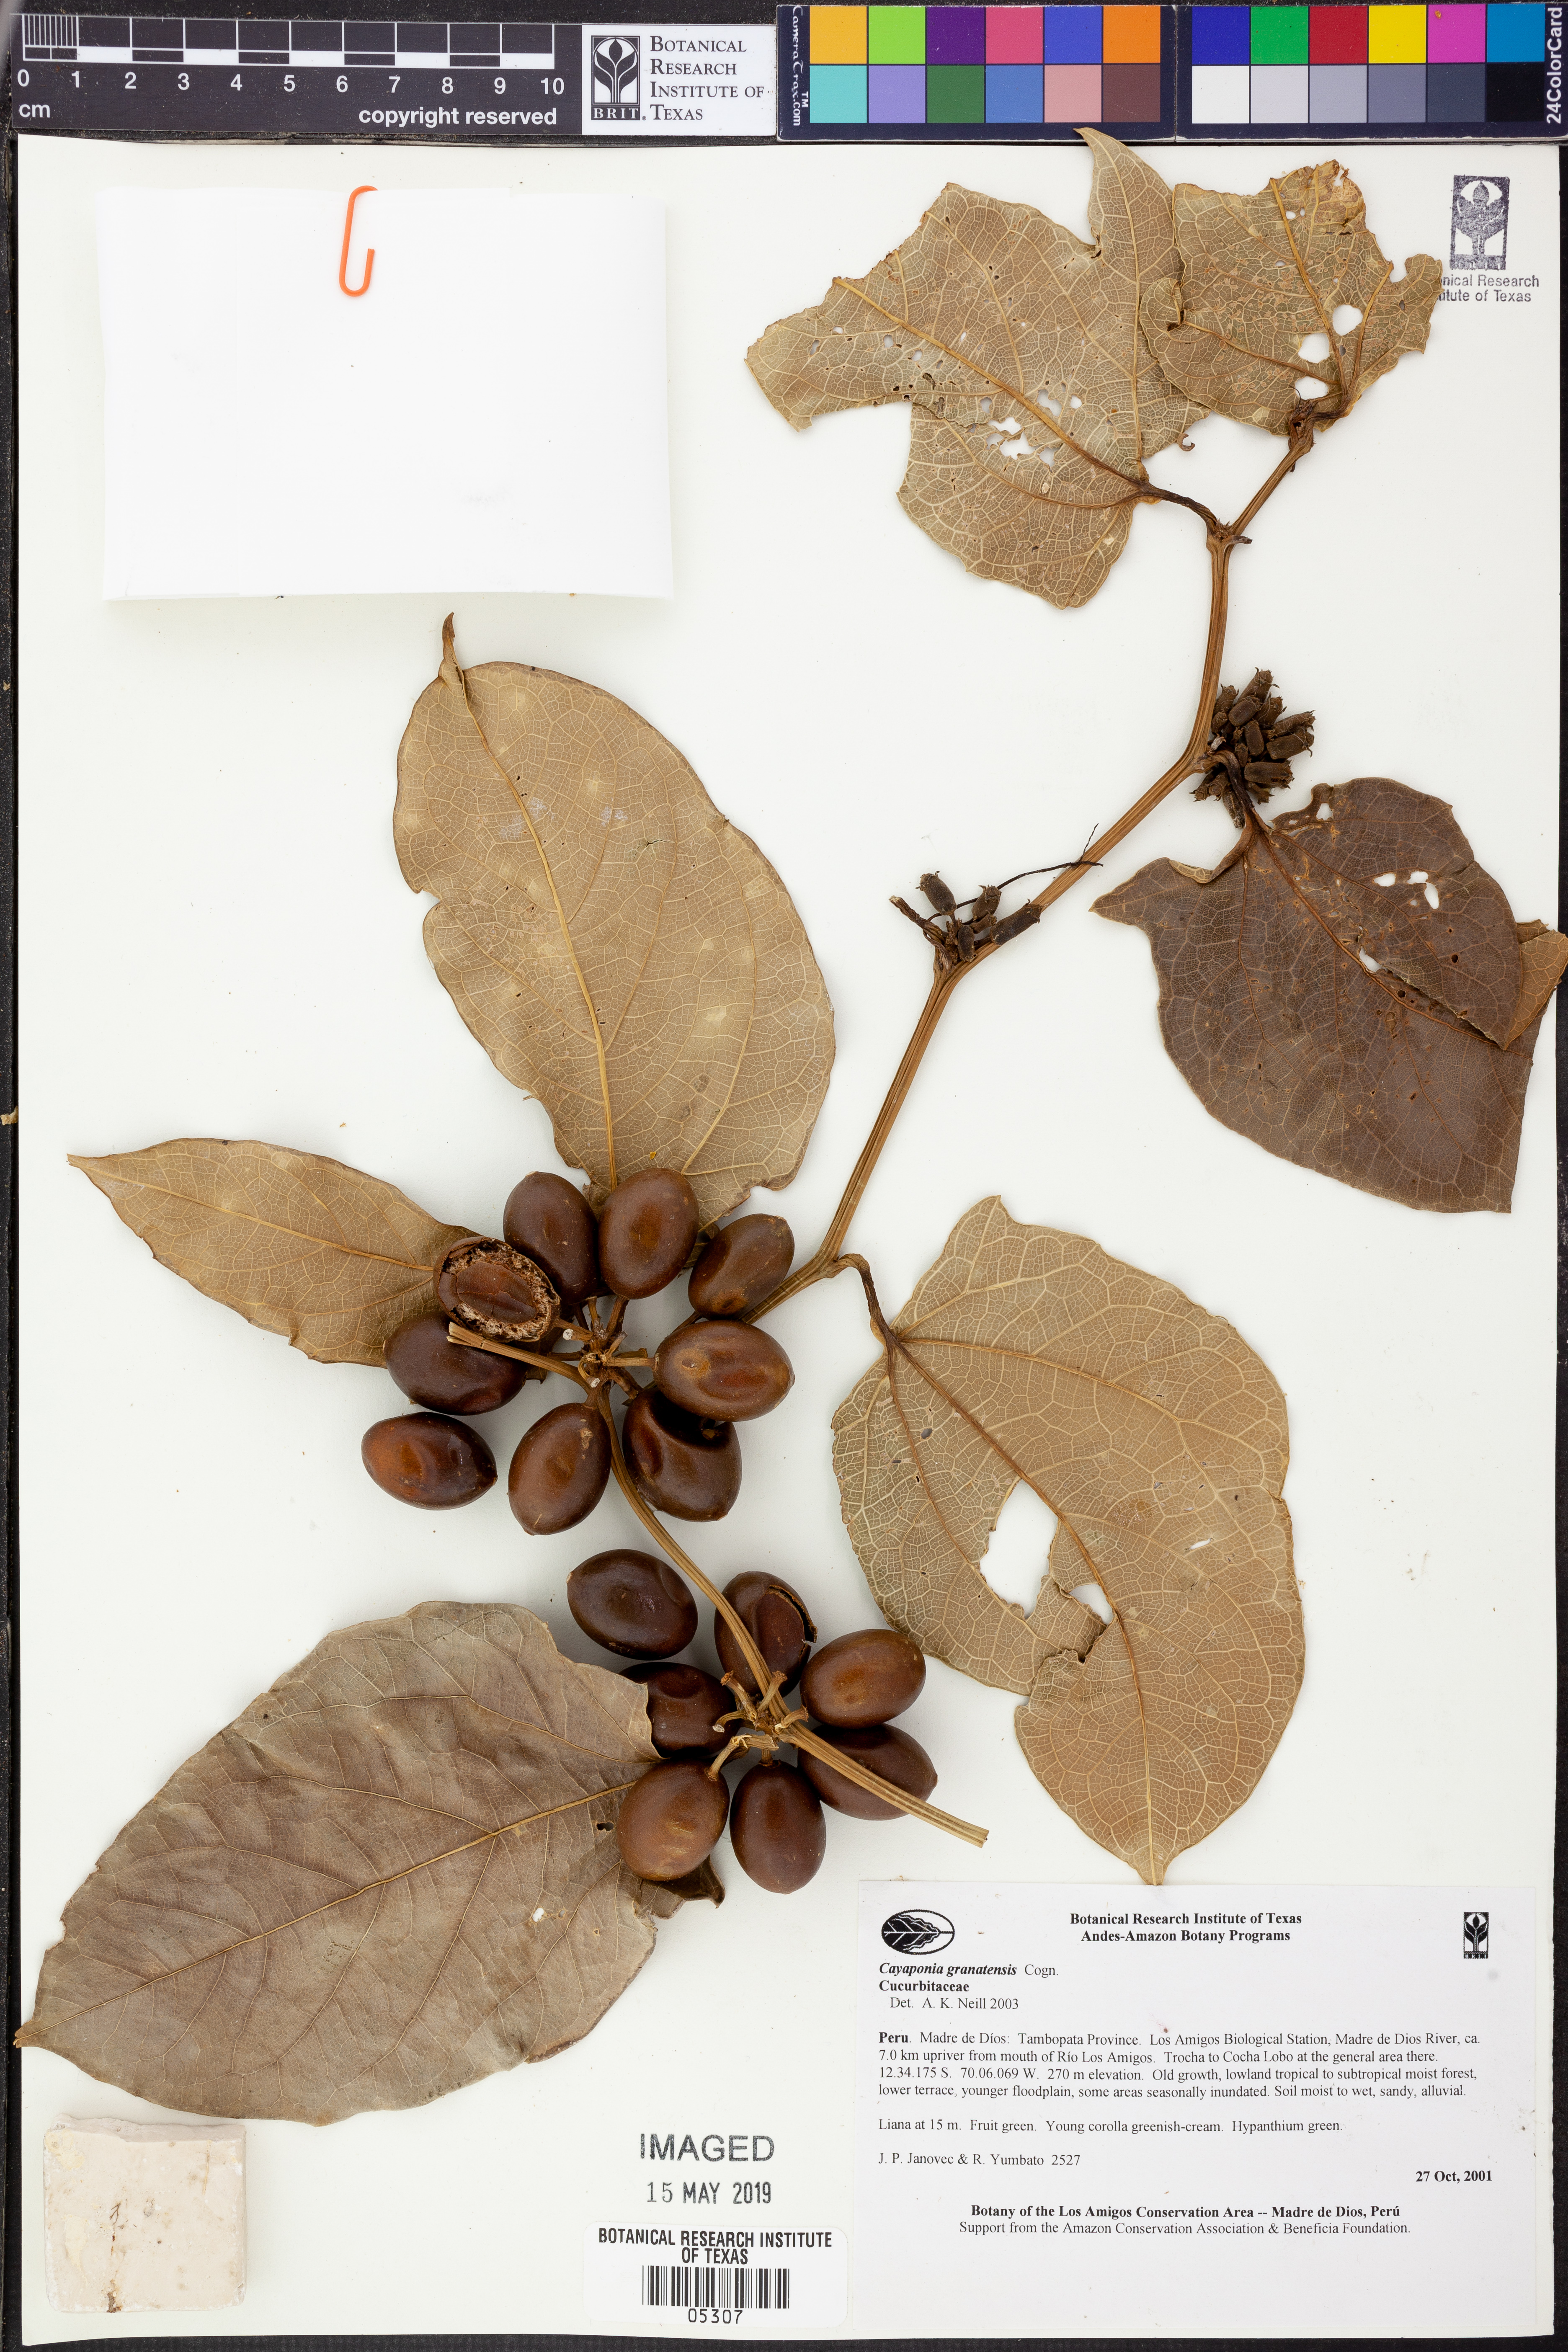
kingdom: Plantae
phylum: Tracheophyta
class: Magnoliopsida
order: Cucurbitales
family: Cucurbitaceae
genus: Cayaponia
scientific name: Cayaponia
